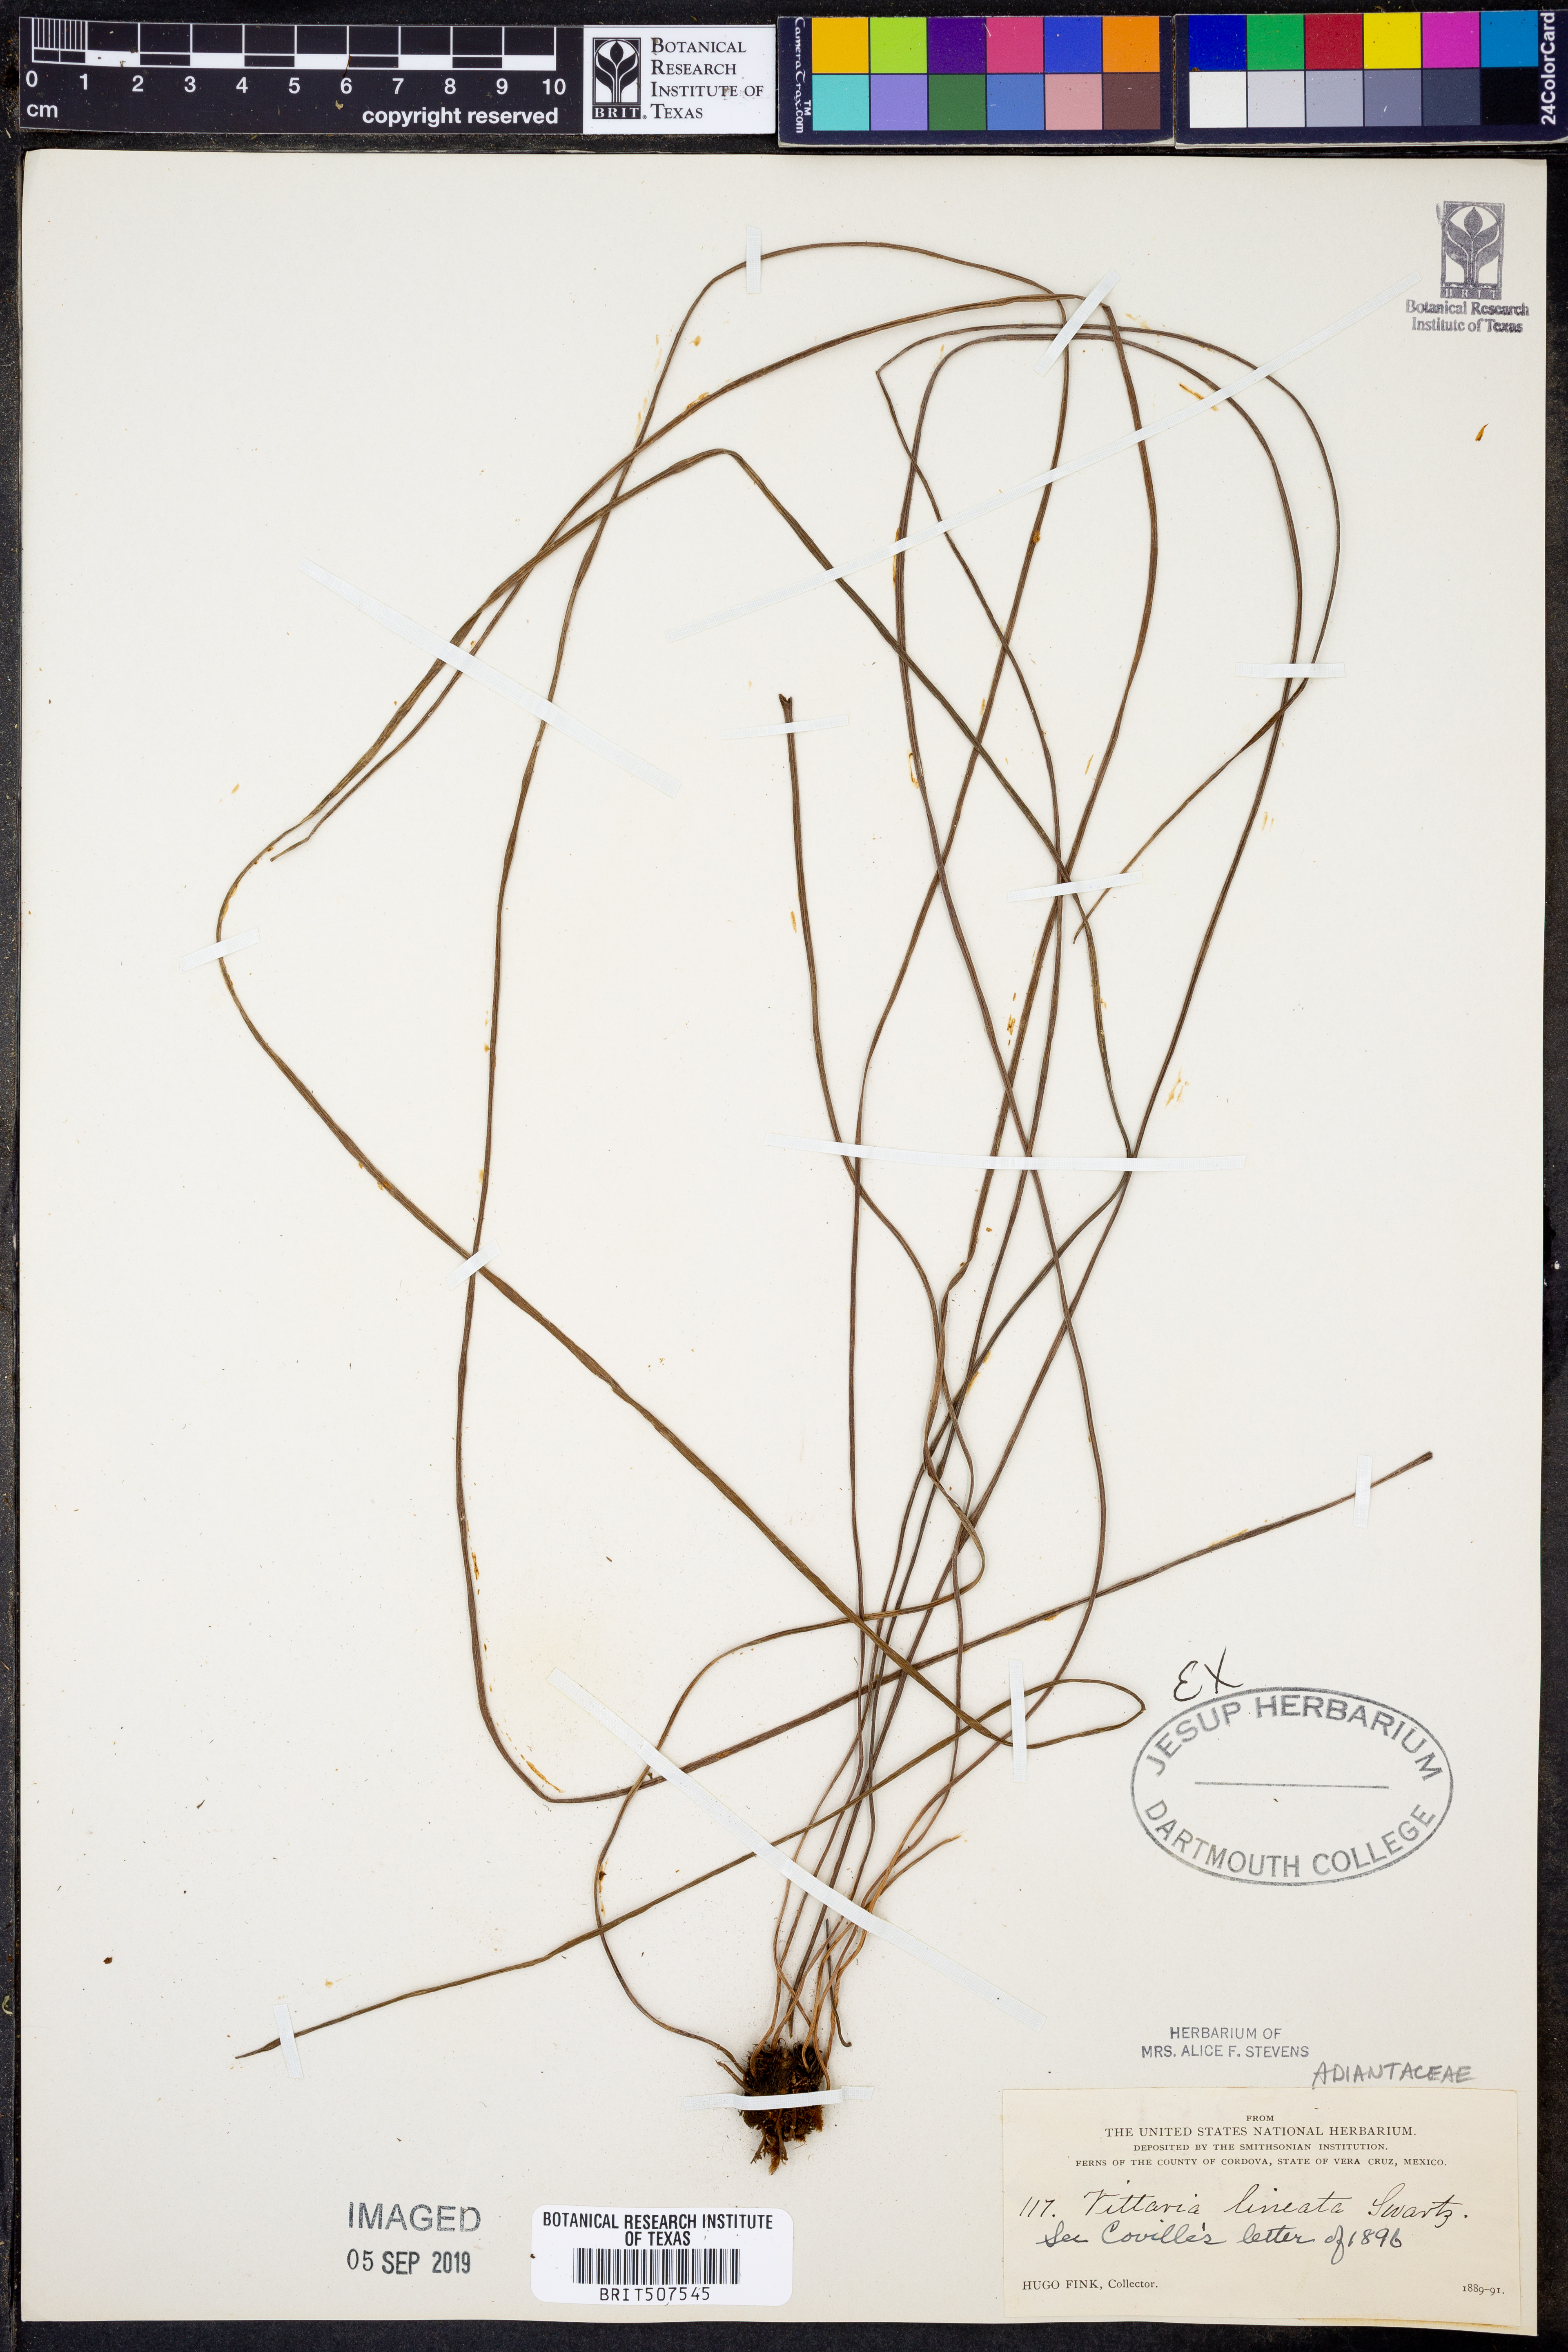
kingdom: Plantae
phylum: Tracheophyta
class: Polypodiopsida
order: Polypodiales
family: Pteridaceae
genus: Vittaria
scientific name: Vittaria lineata
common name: Shoestring fern
